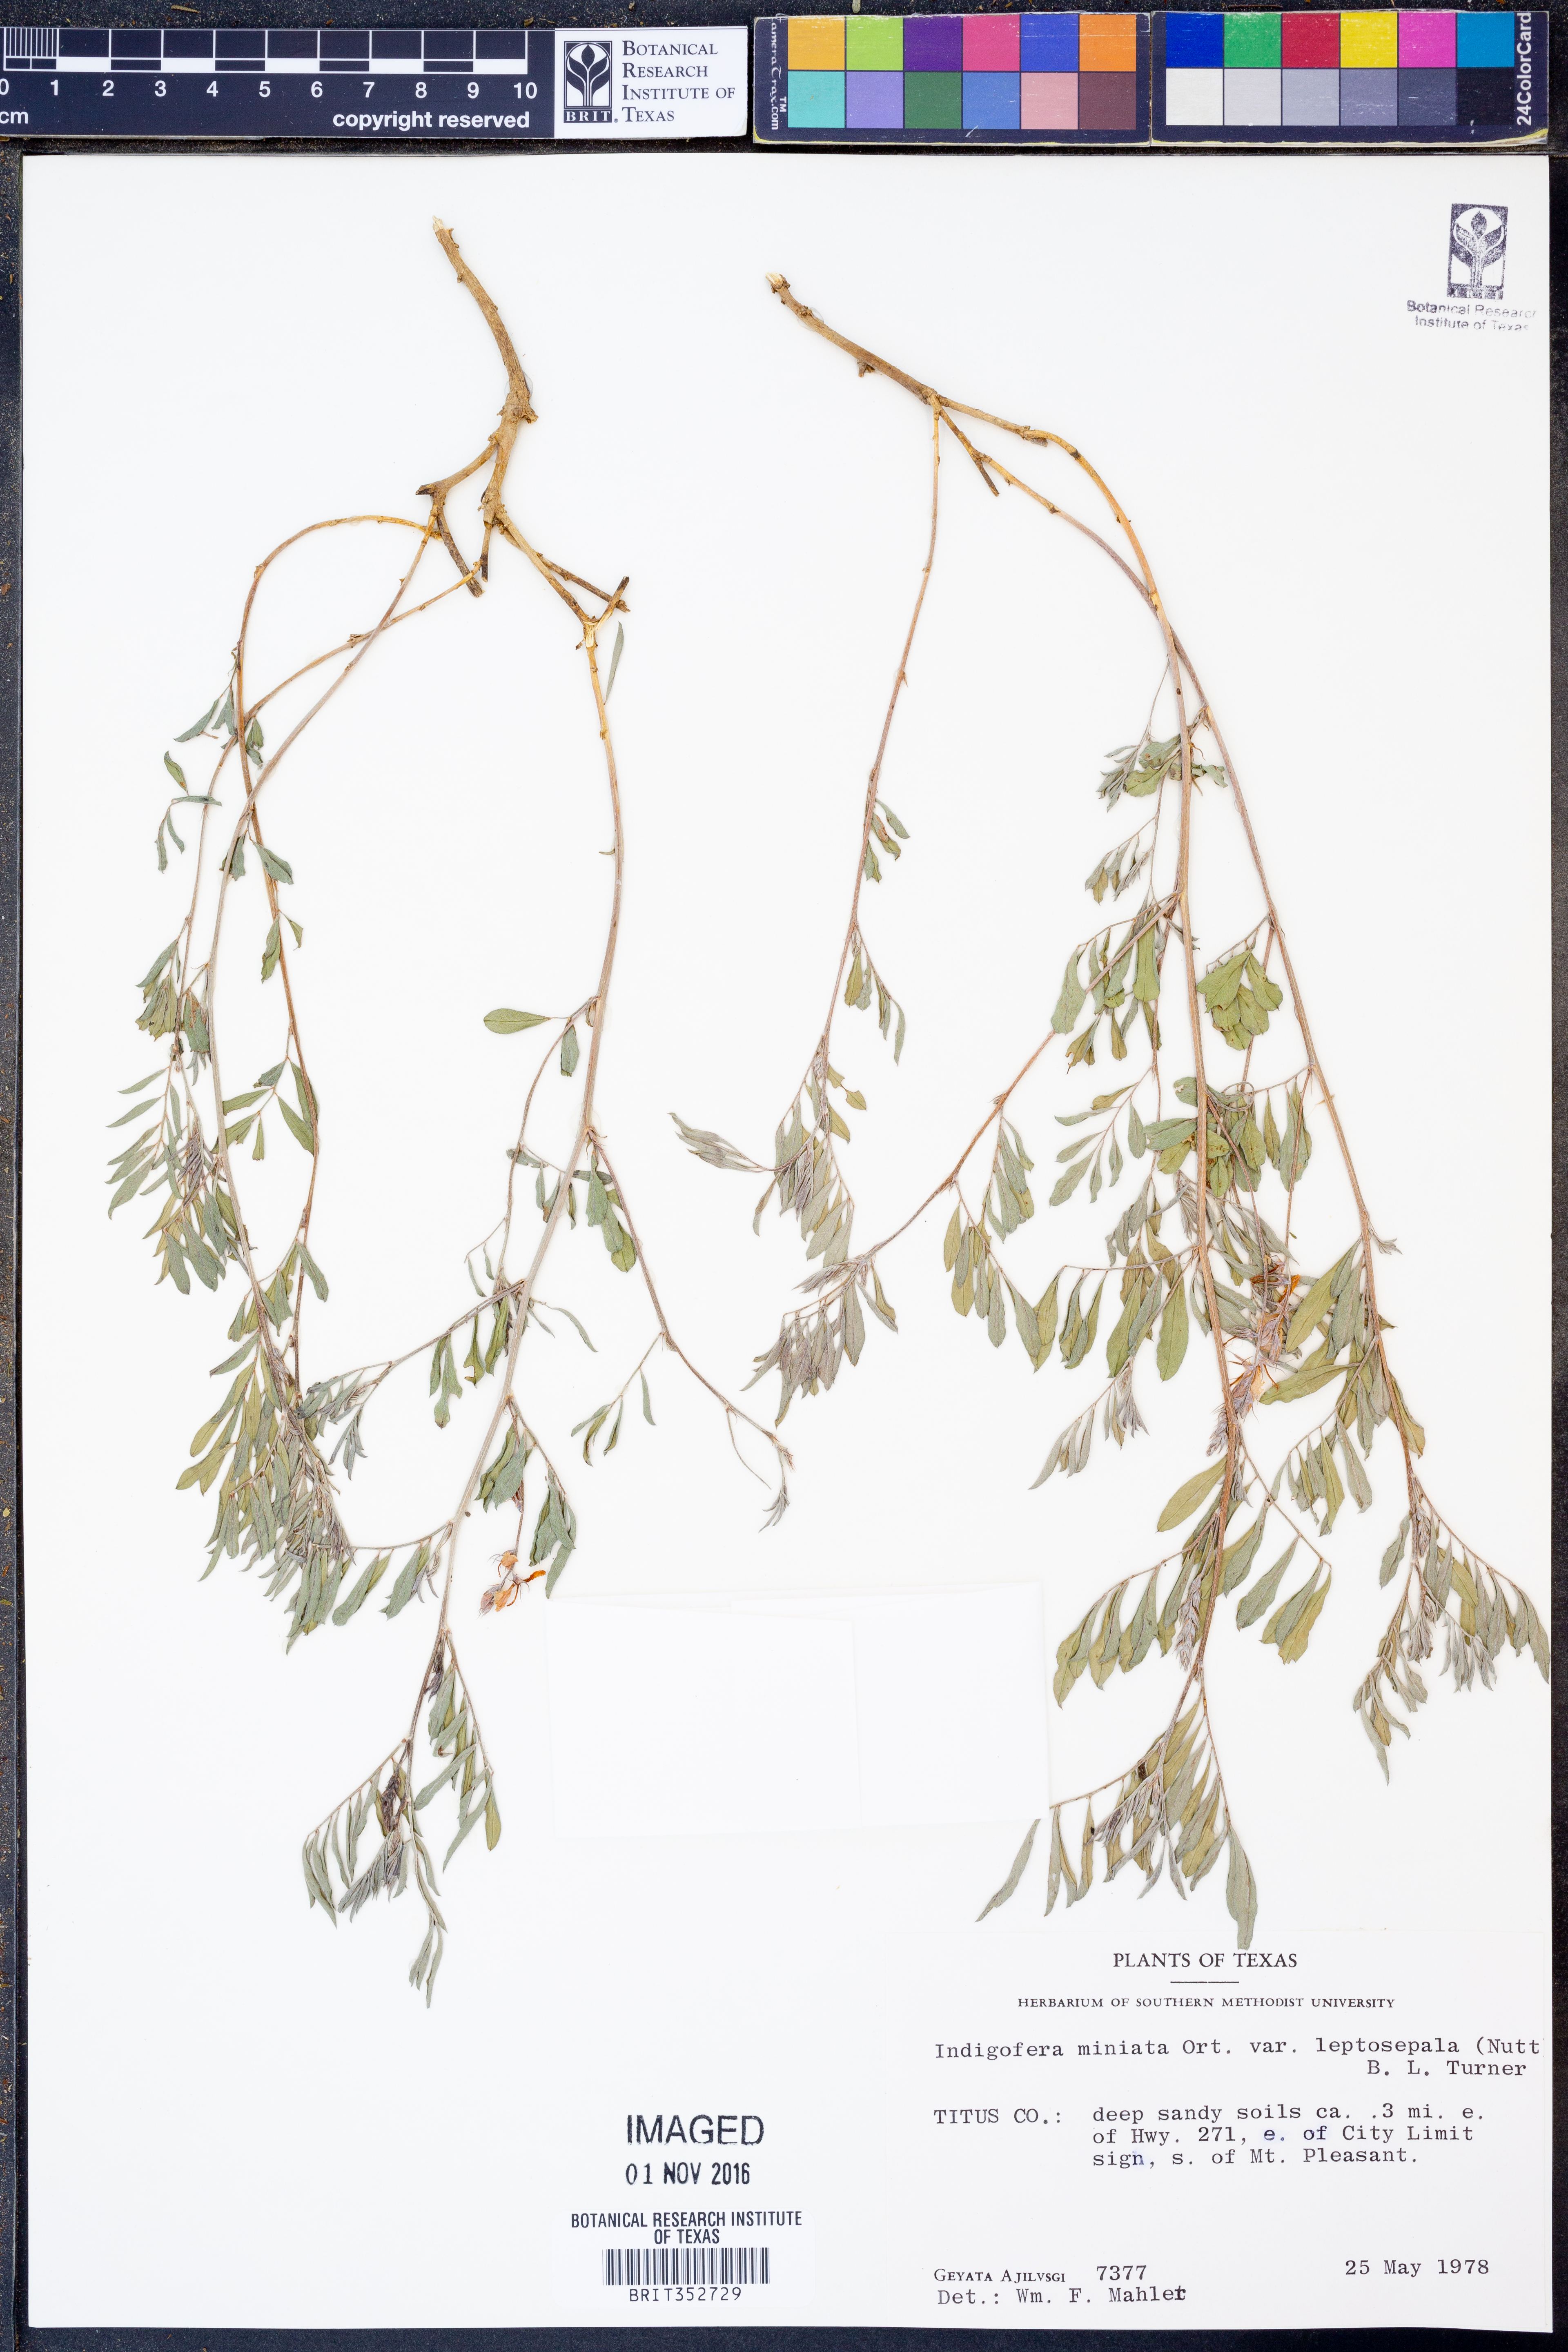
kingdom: Plantae
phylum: Tracheophyta
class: Magnoliopsida
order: Fabales
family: Fabaceae
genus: Indigofera
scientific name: Indigofera miniata
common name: Coast indigo
